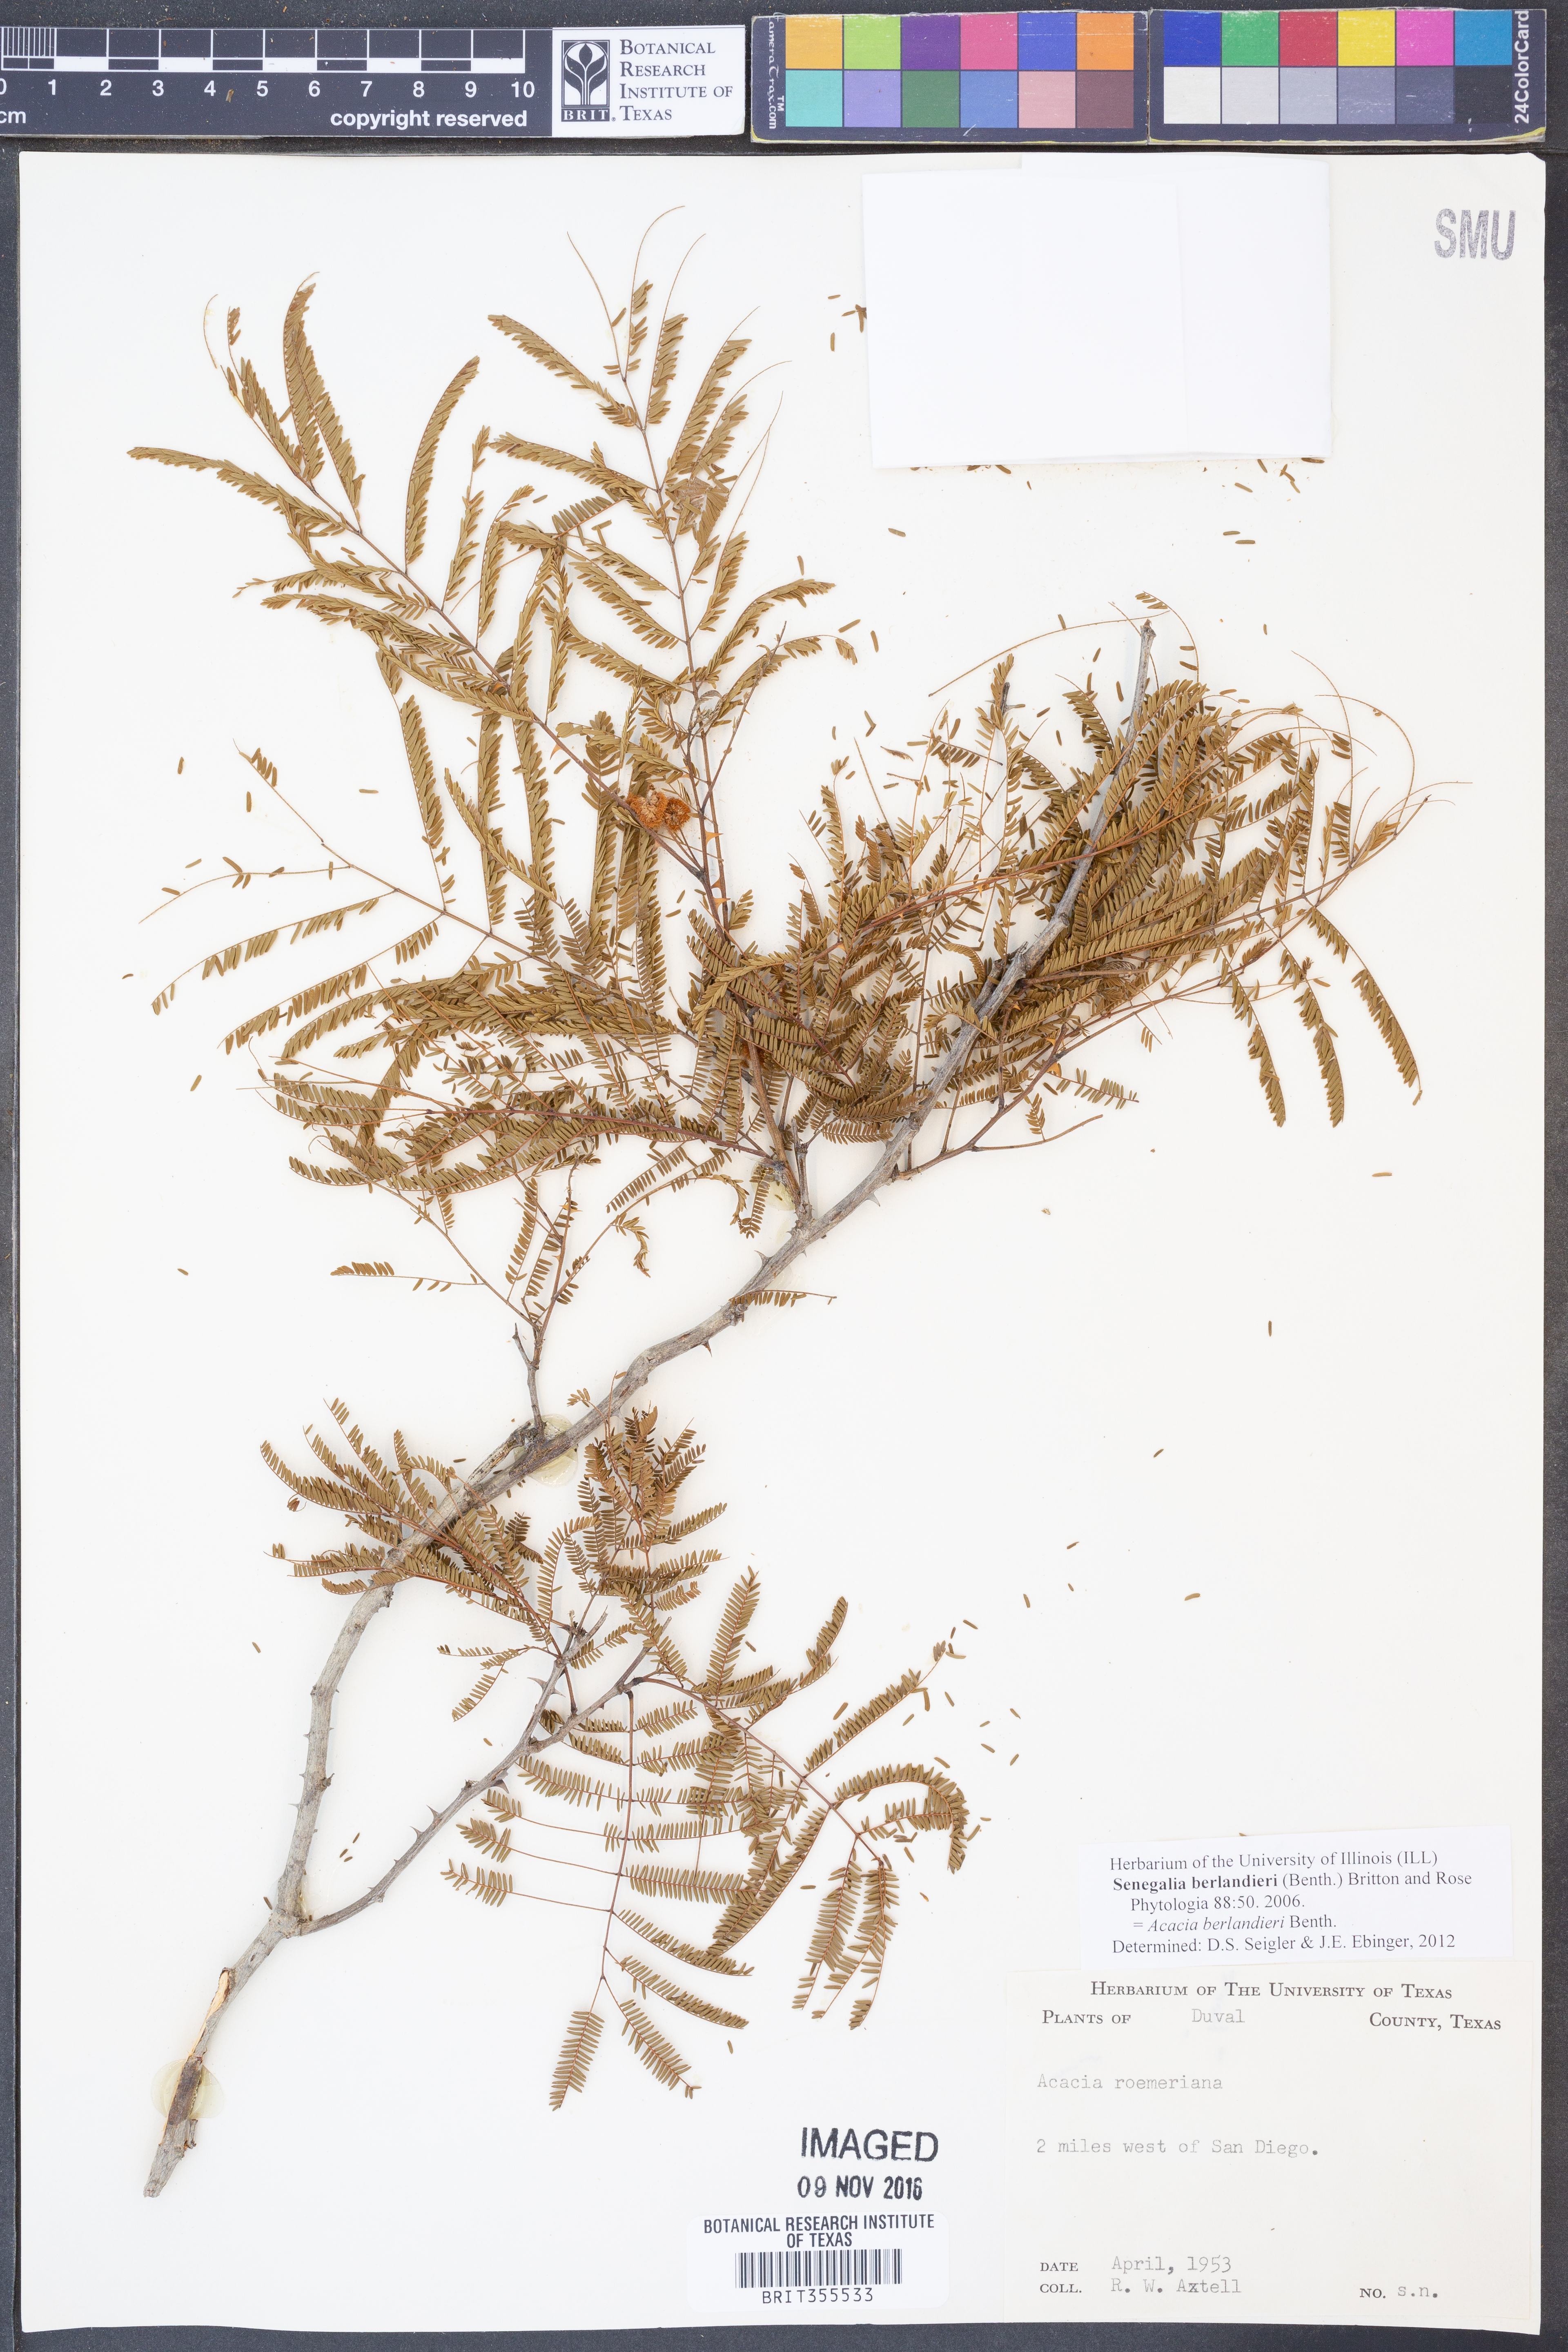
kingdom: Plantae
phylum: Tracheophyta
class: Magnoliopsida
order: Fabales
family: Fabaceae
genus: Senegalia
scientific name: Senegalia berlandieri
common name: Berlandier acacia
